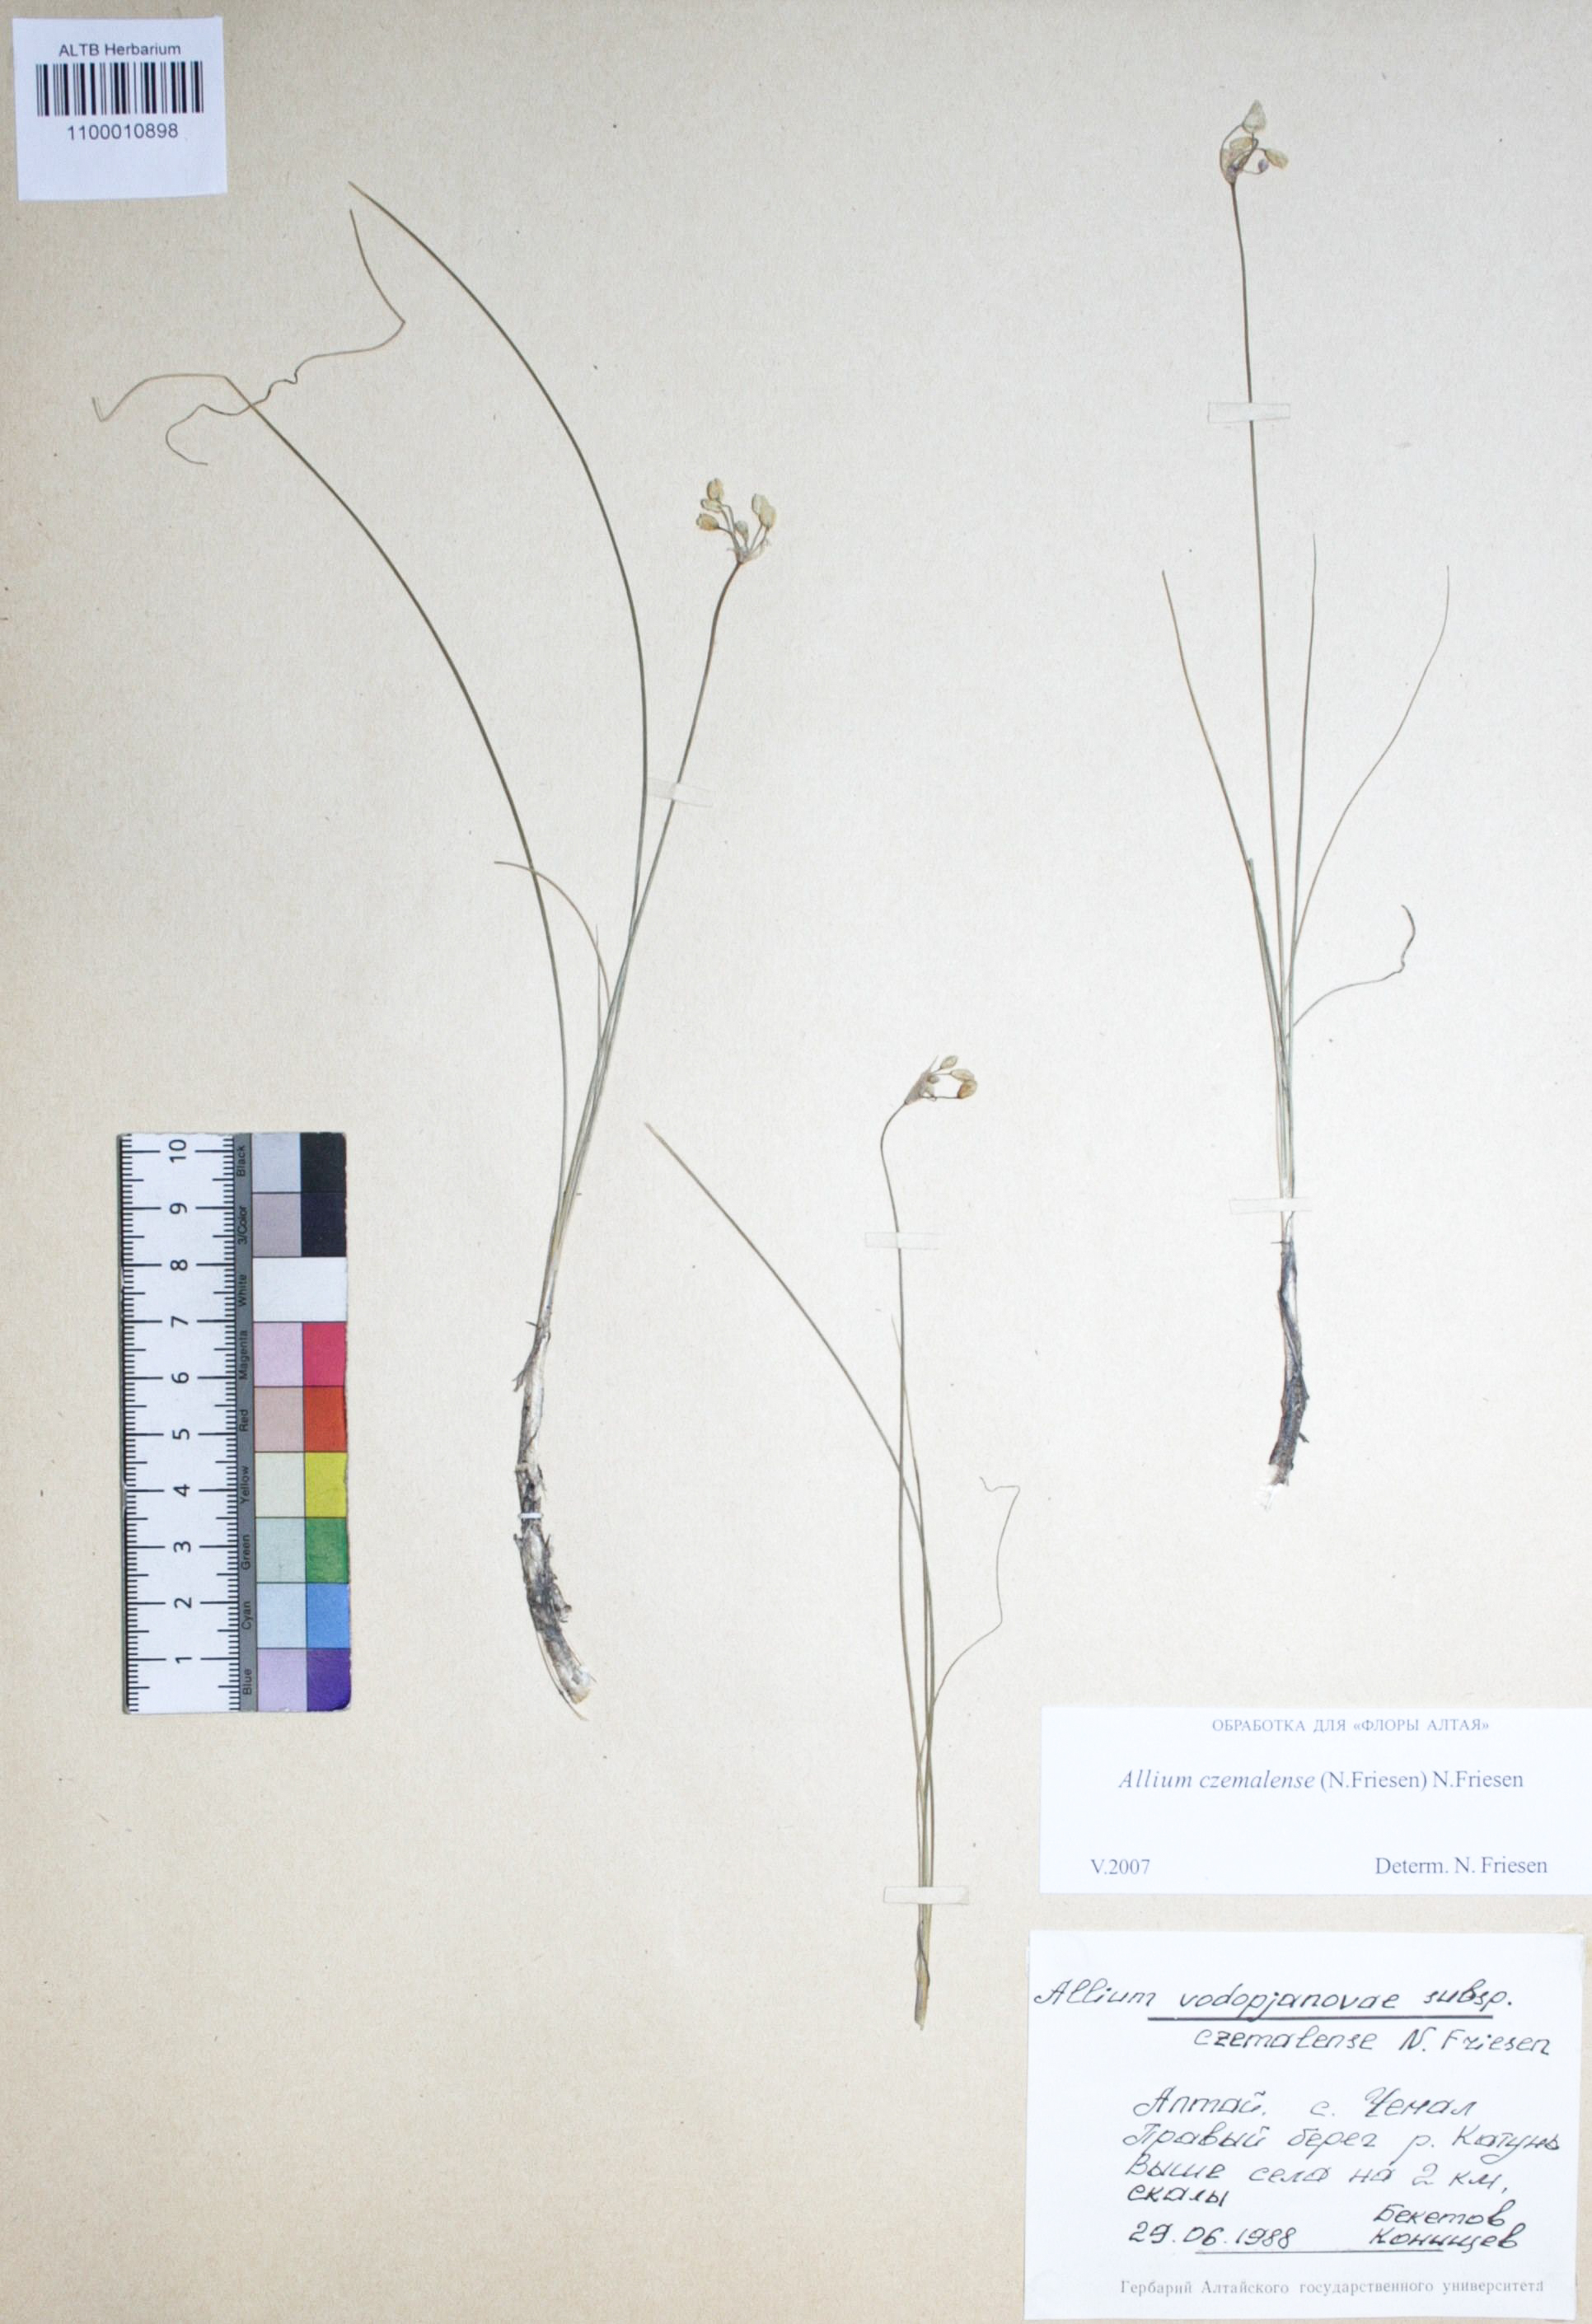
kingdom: Plantae
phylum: Tracheophyta
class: Liliopsida
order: Asparagales
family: Amaryllidaceae
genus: Allium
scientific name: Allium
